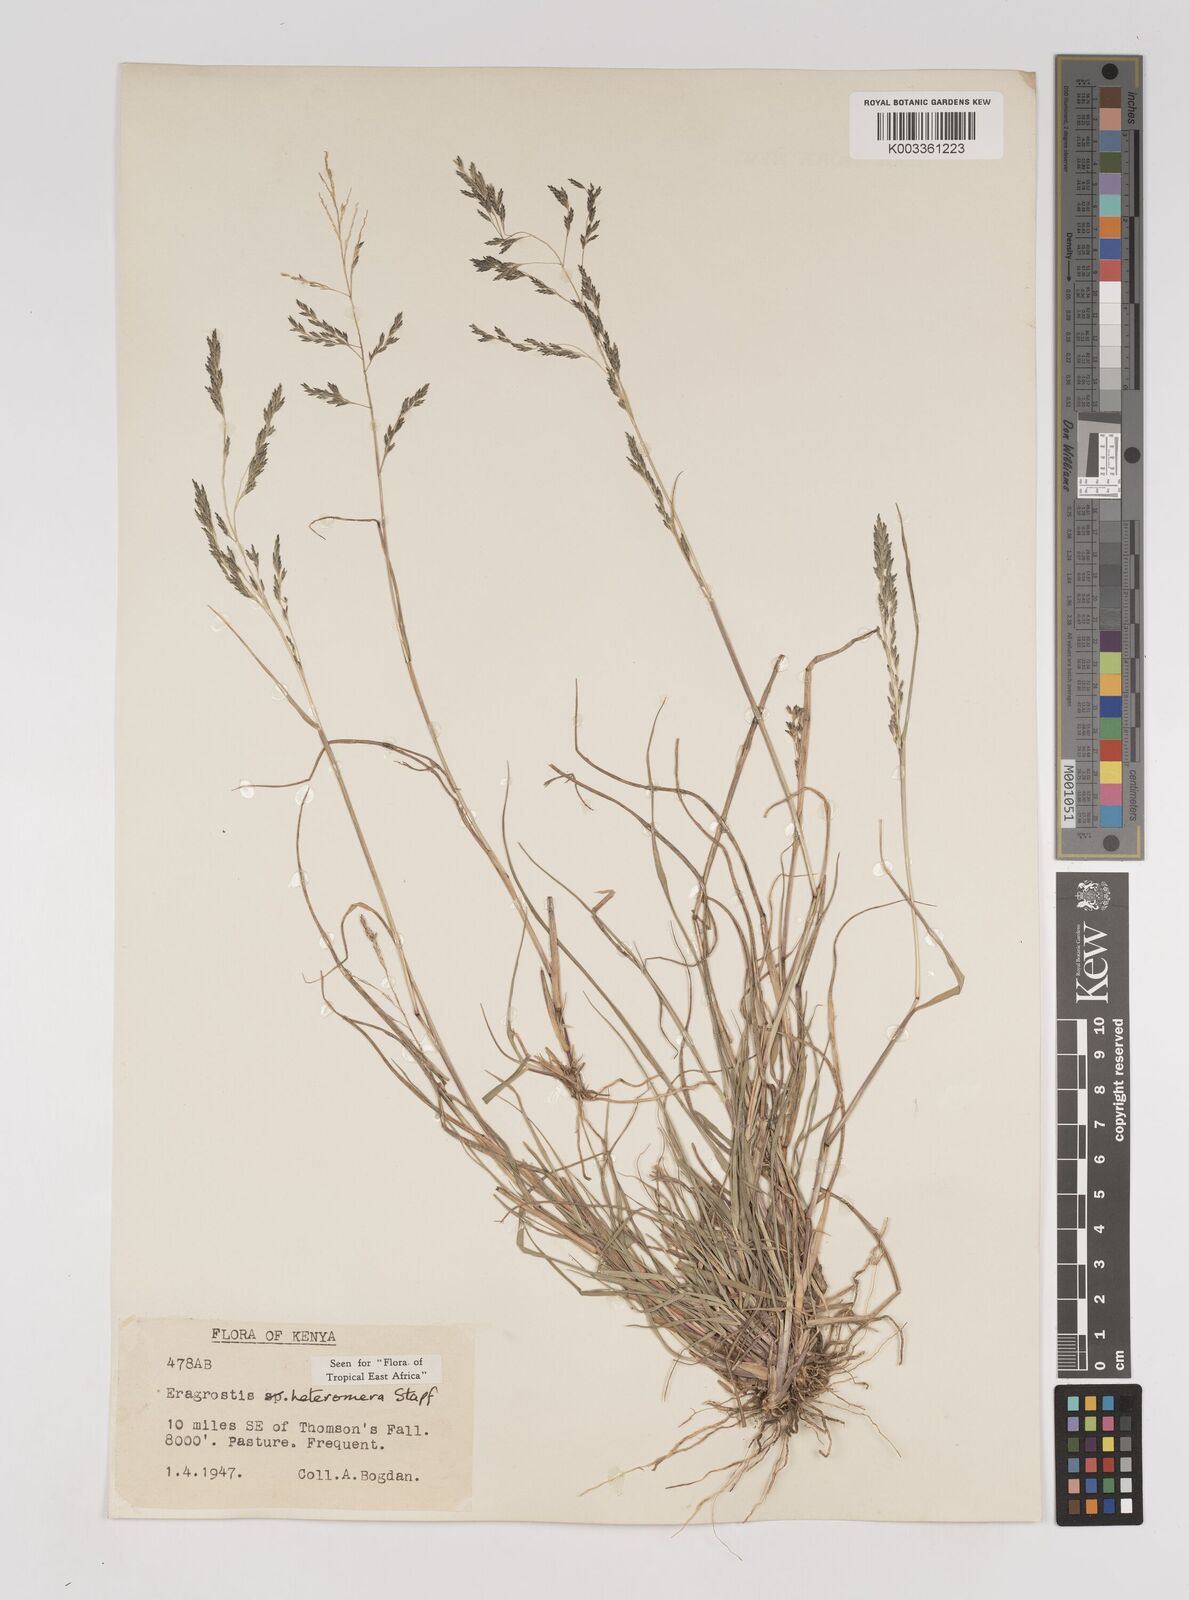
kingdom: Plantae
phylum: Tracheophyta
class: Liliopsida
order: Poales
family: Poaceae
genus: Eragrostis
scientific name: Eragrostis heteromera
